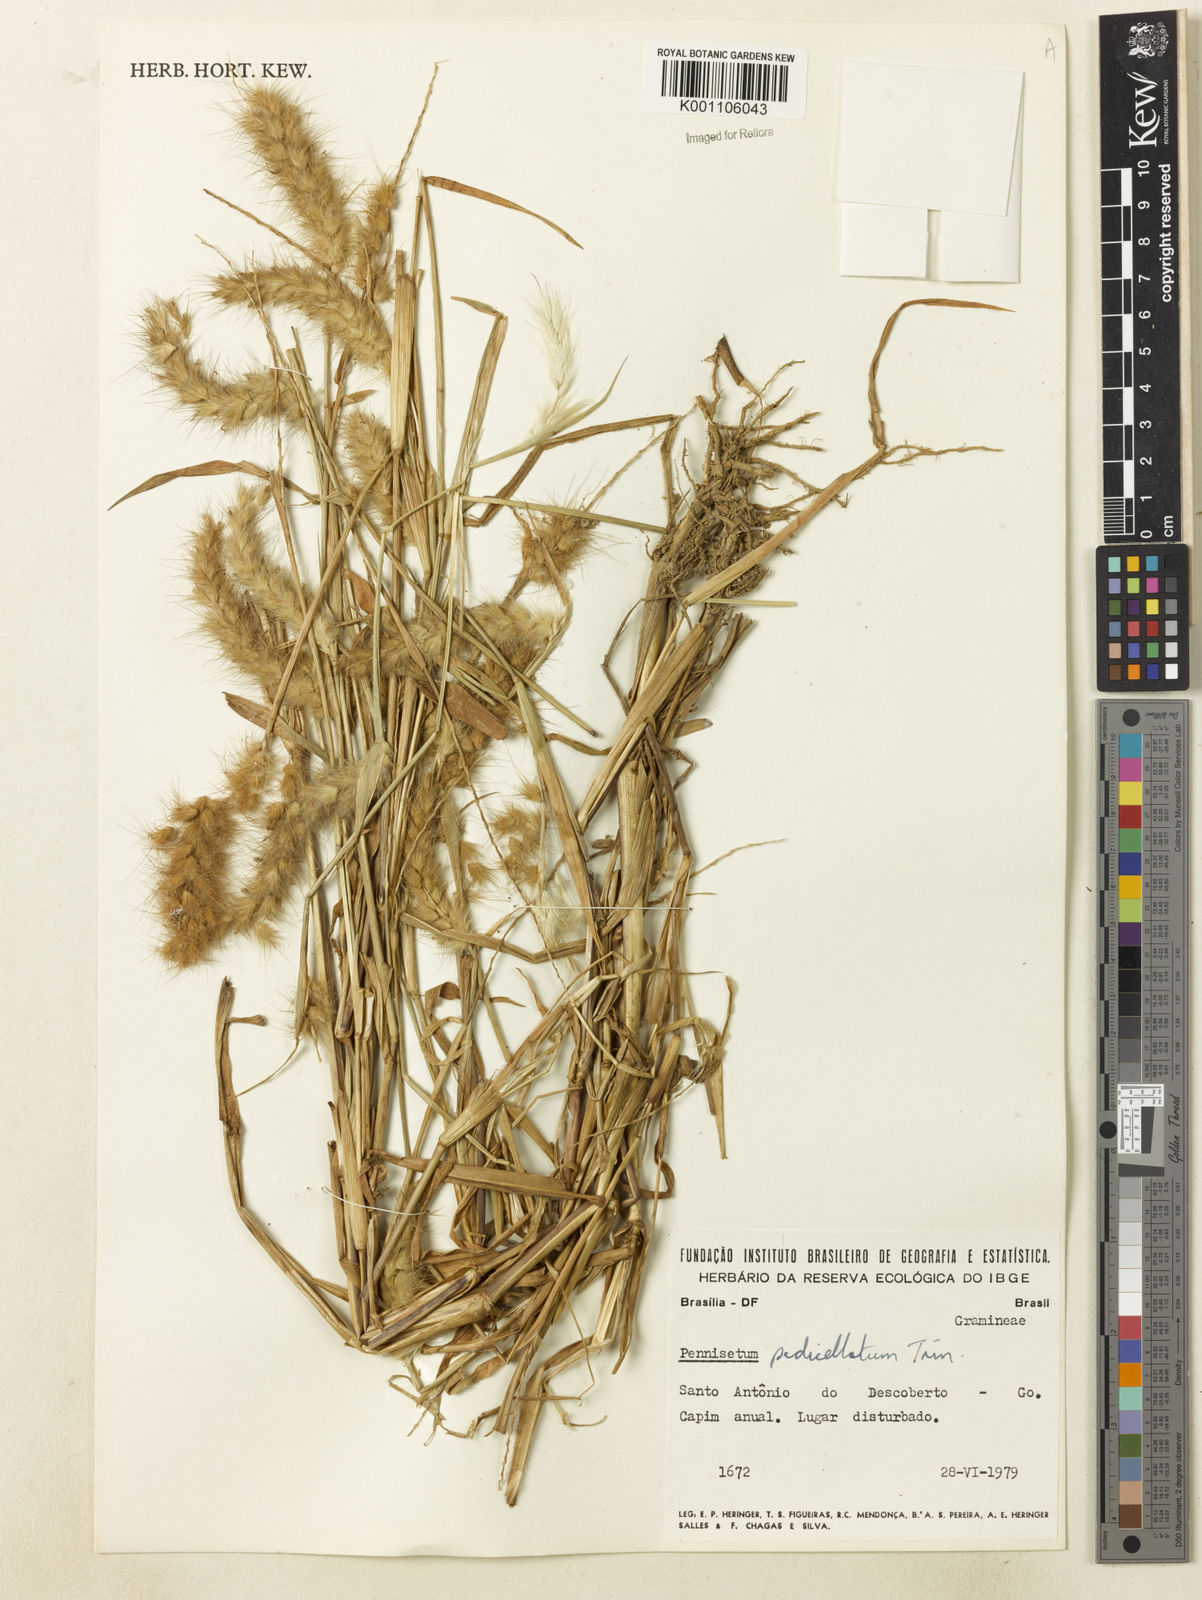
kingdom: Plantae
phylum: Tracheophyta
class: Liliopsida
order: Poales
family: Poaceae
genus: Cenchrus
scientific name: Cenchrus pedicellatus
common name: Hairy fountain grass
